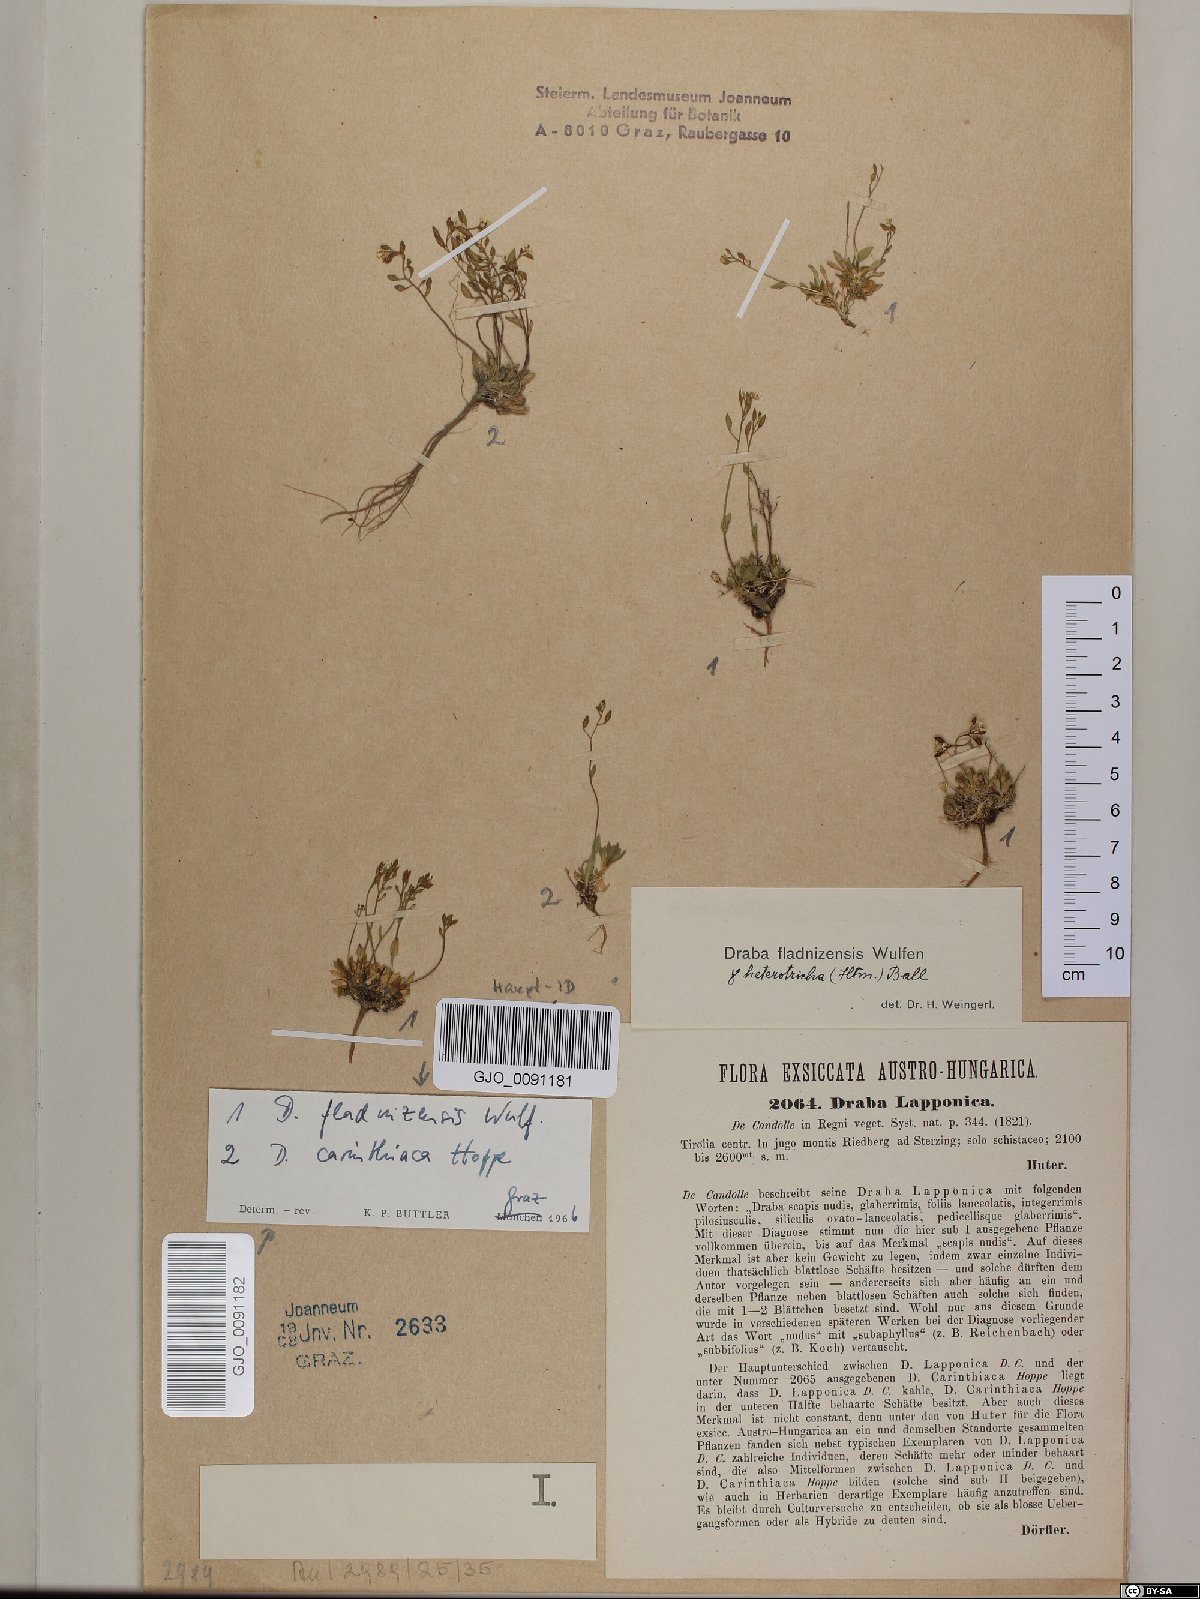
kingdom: Plantae
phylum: Tracheophyta
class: Magnoliopsida
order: Brassicales
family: Brassicaceae
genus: Draba
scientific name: Draba fladnizensis
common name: Austrian draba
